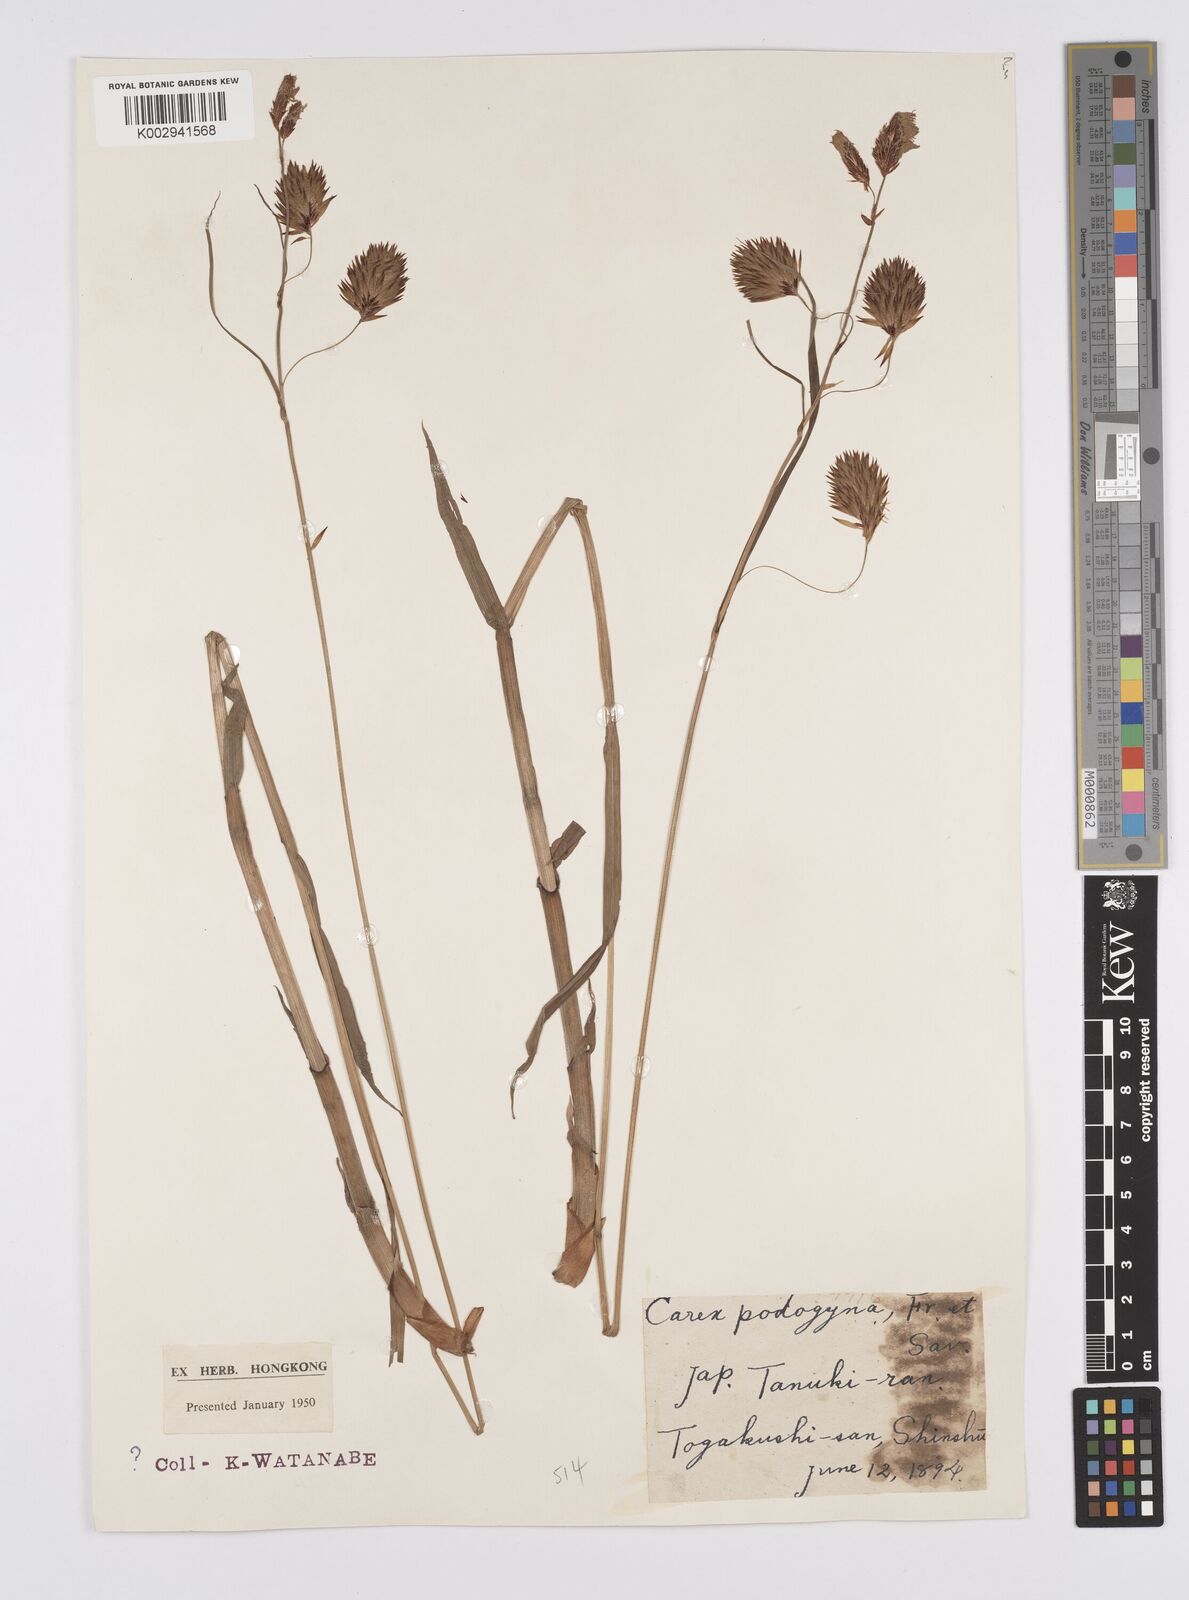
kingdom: Plantae
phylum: Tracheophyta
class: Liliopsida
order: Poales
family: Cyperaceae
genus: Carex
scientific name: Carex podogyna
